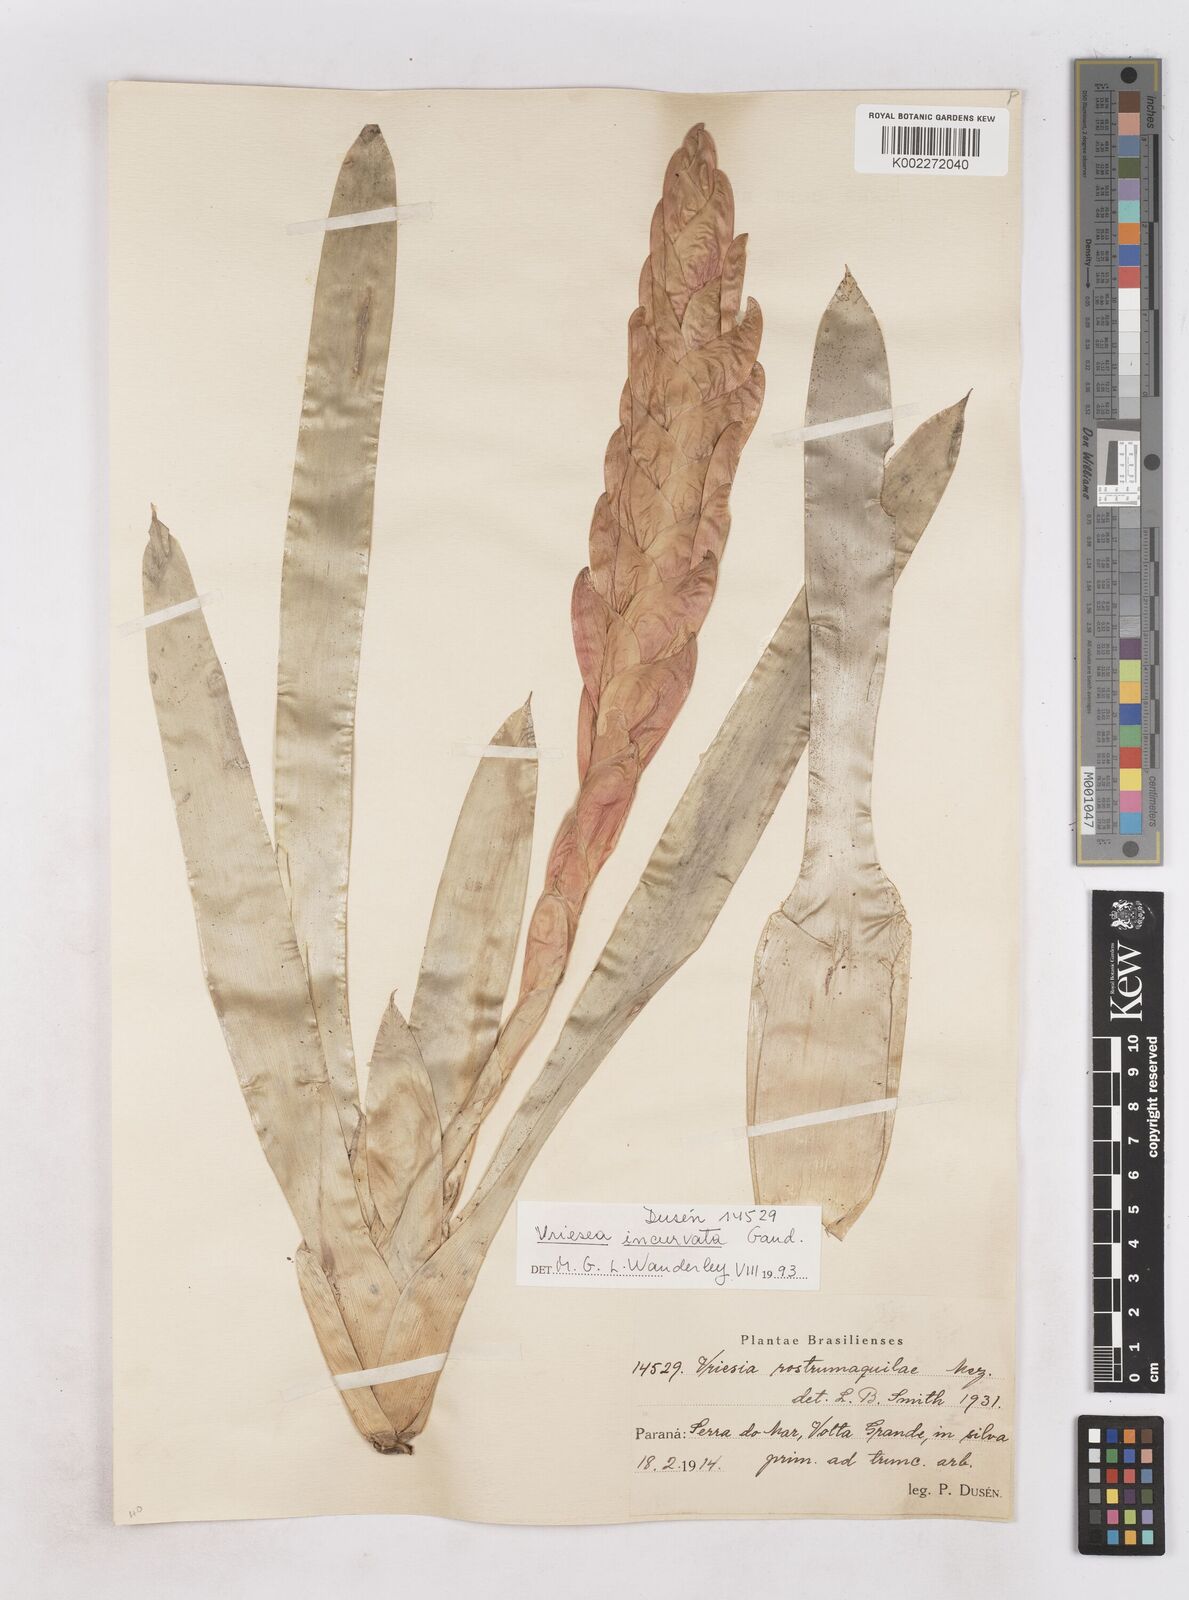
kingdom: Plantae
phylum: Tracheophyta
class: Liliopsida
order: Poales
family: Bromeliaceae
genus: Vriesea
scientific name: Vriesea incurvata
